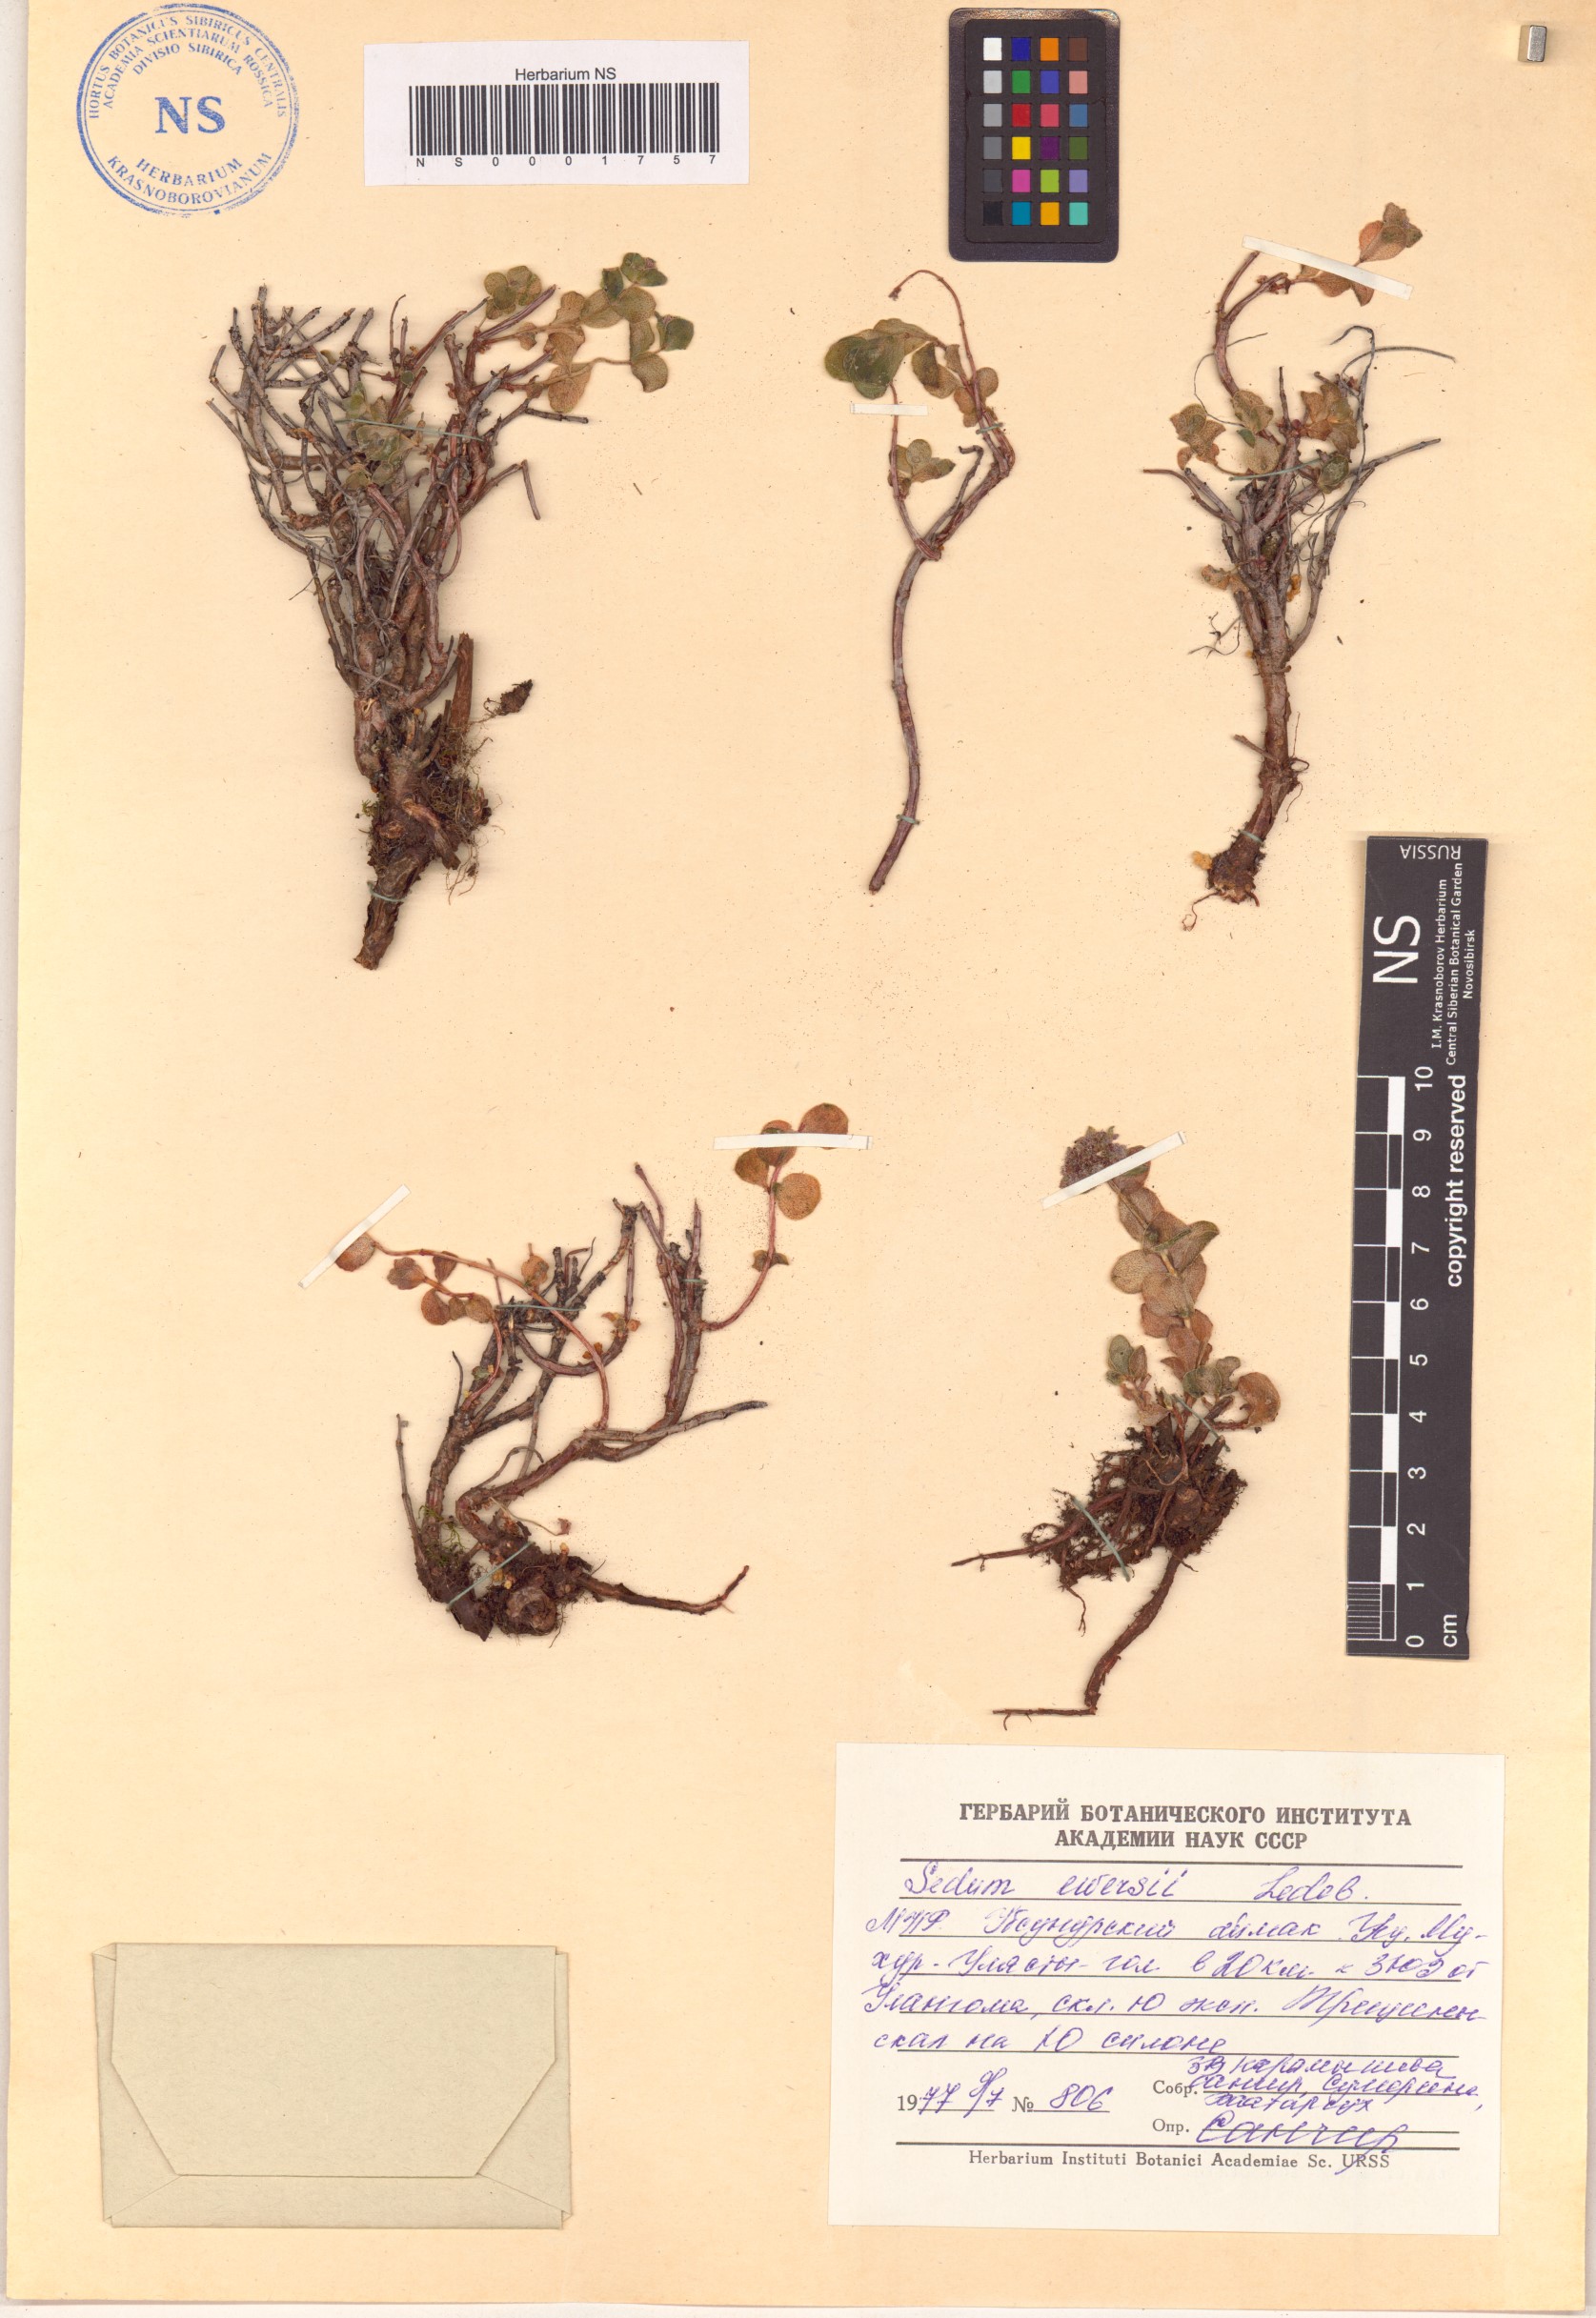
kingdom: Plantae
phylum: Tracheophyta
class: Magnoliopsida
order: Saxifragales
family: Crassulaceae
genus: Hylotelephium
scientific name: Hylotelephium ewersii
